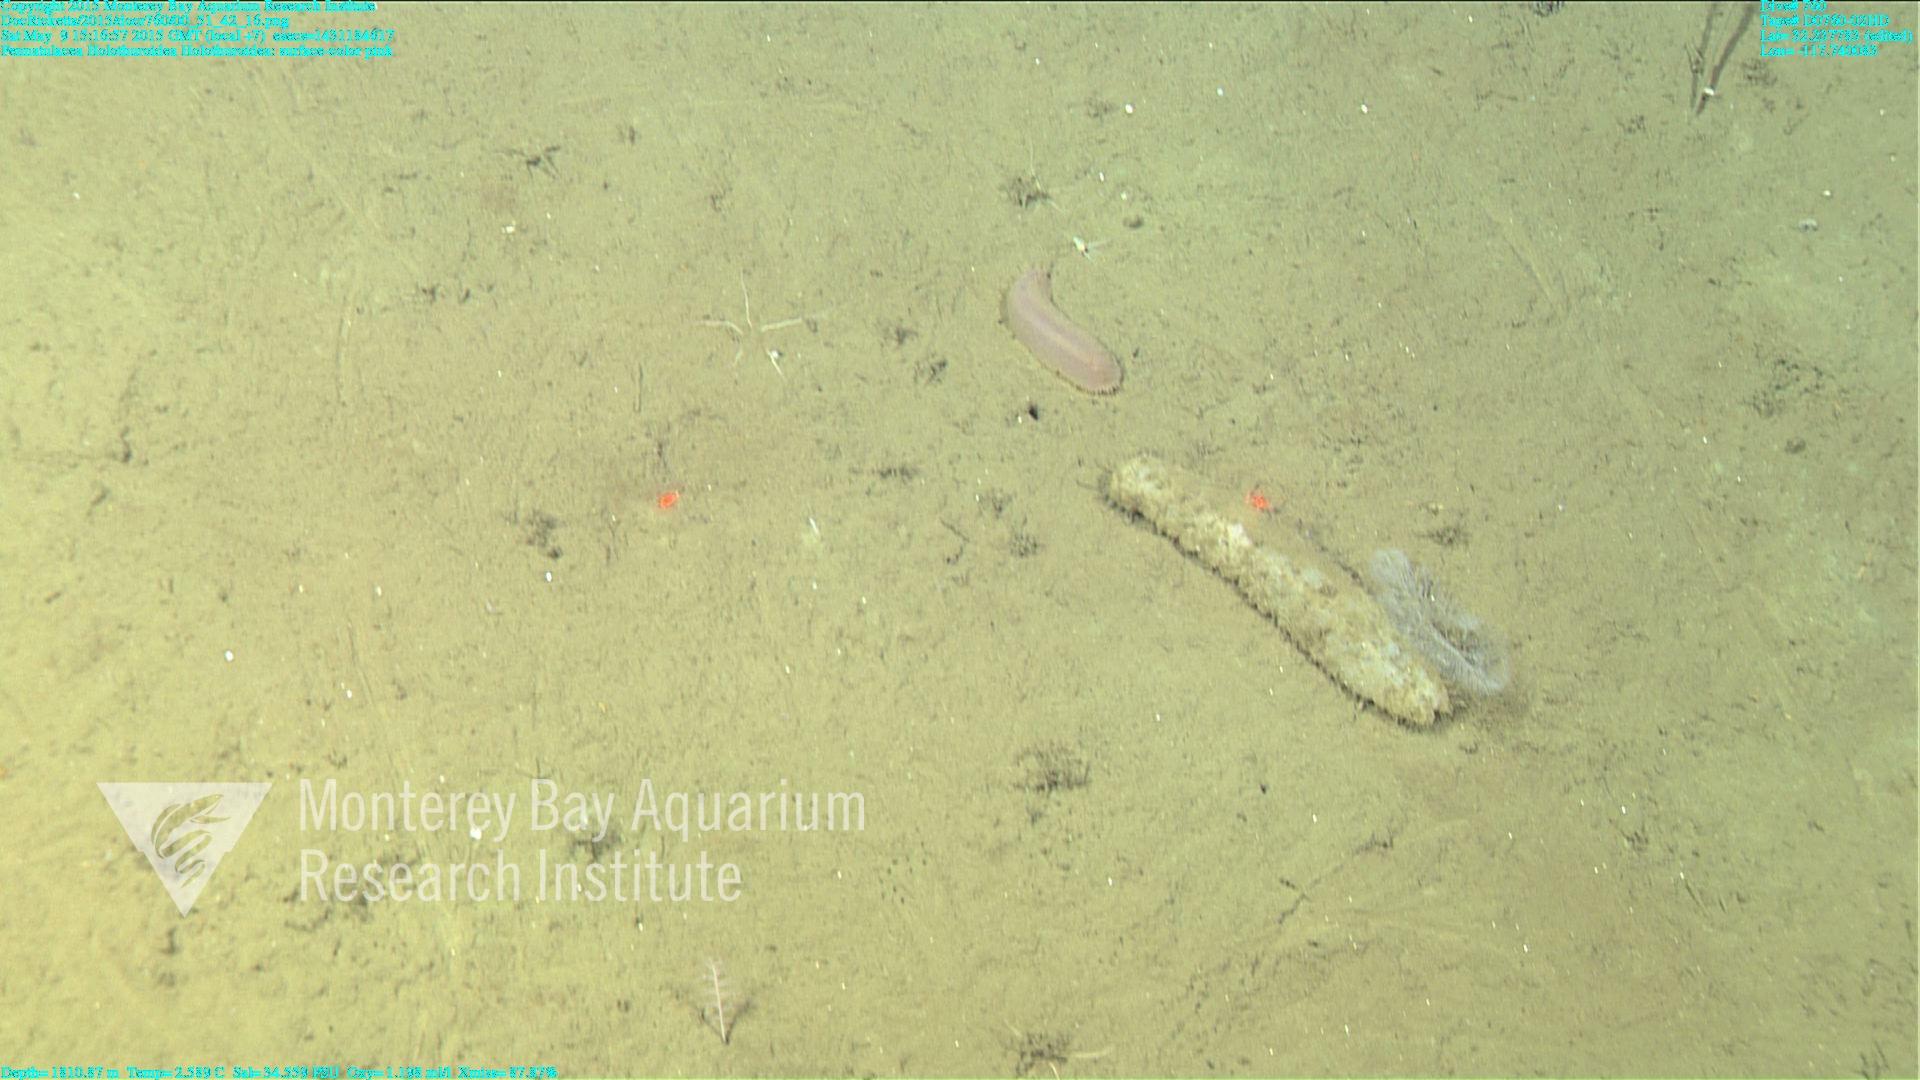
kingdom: Animalia
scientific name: Animalia
